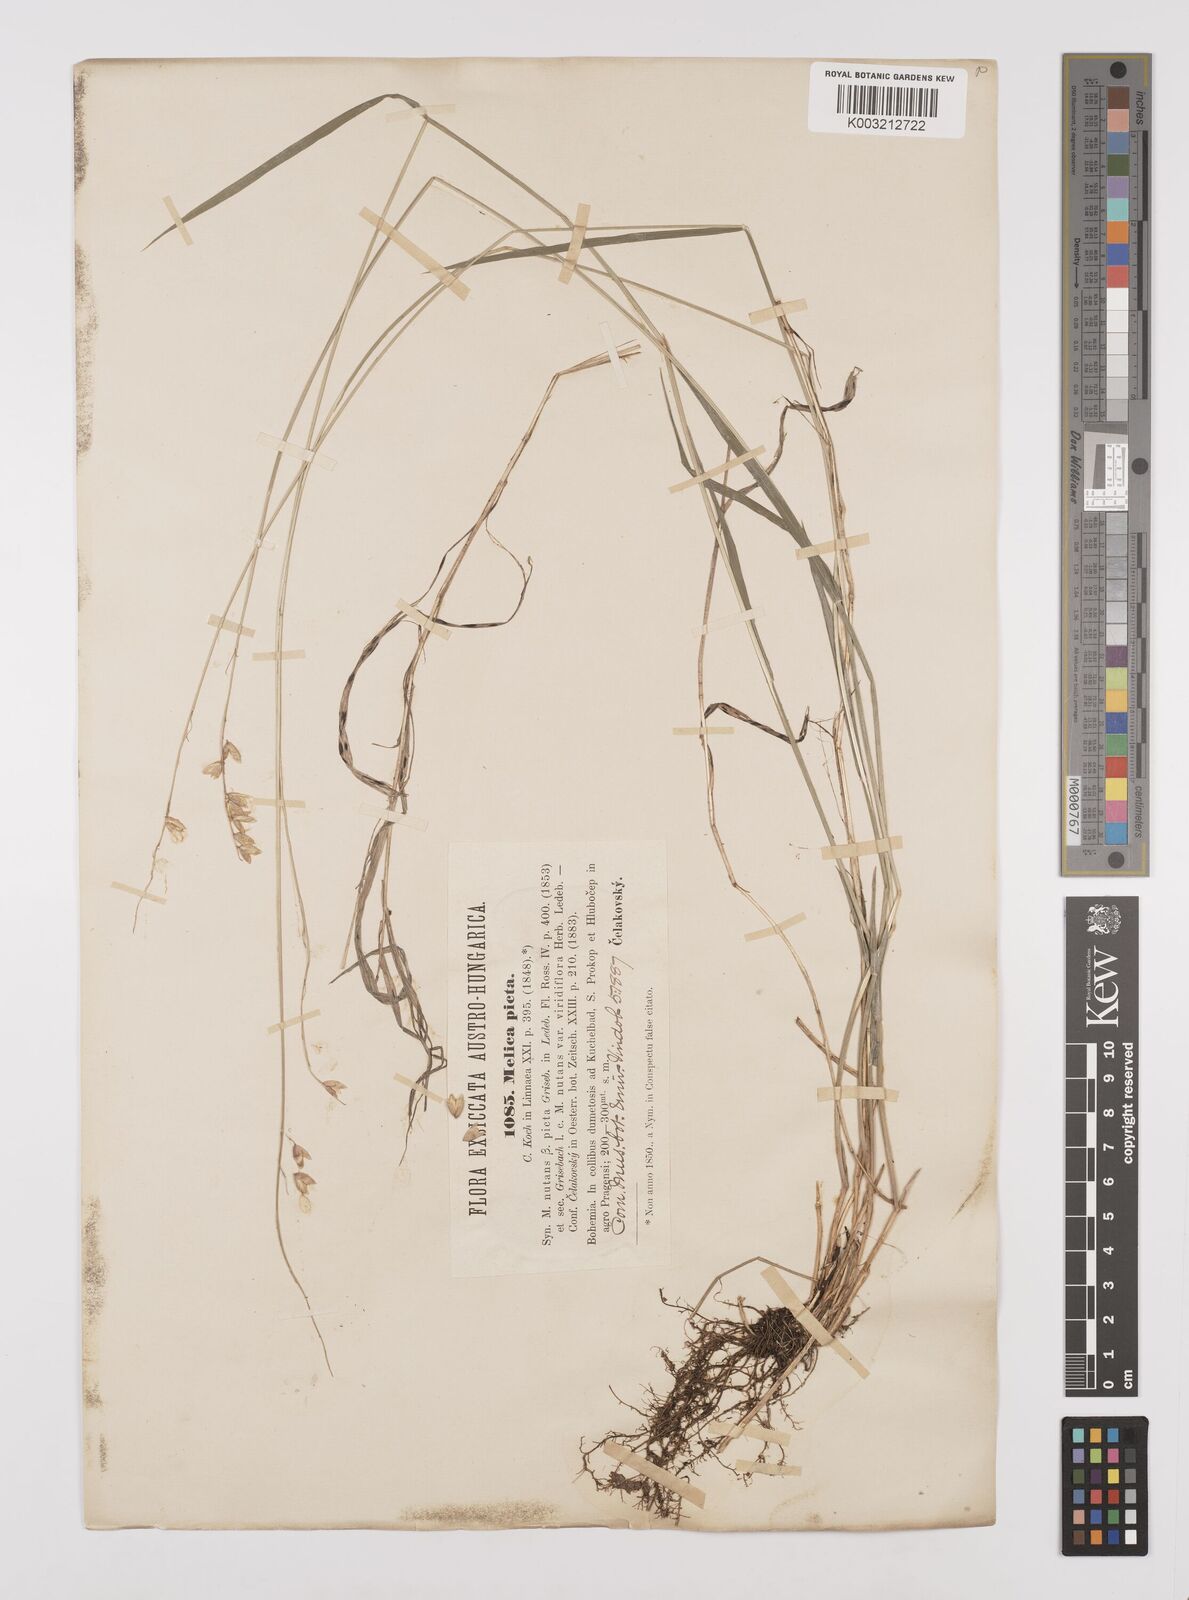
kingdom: Plantae
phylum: Tracheophyta
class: Liliopsida
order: Poales
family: Poaceae
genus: Melica
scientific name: Melica picta
